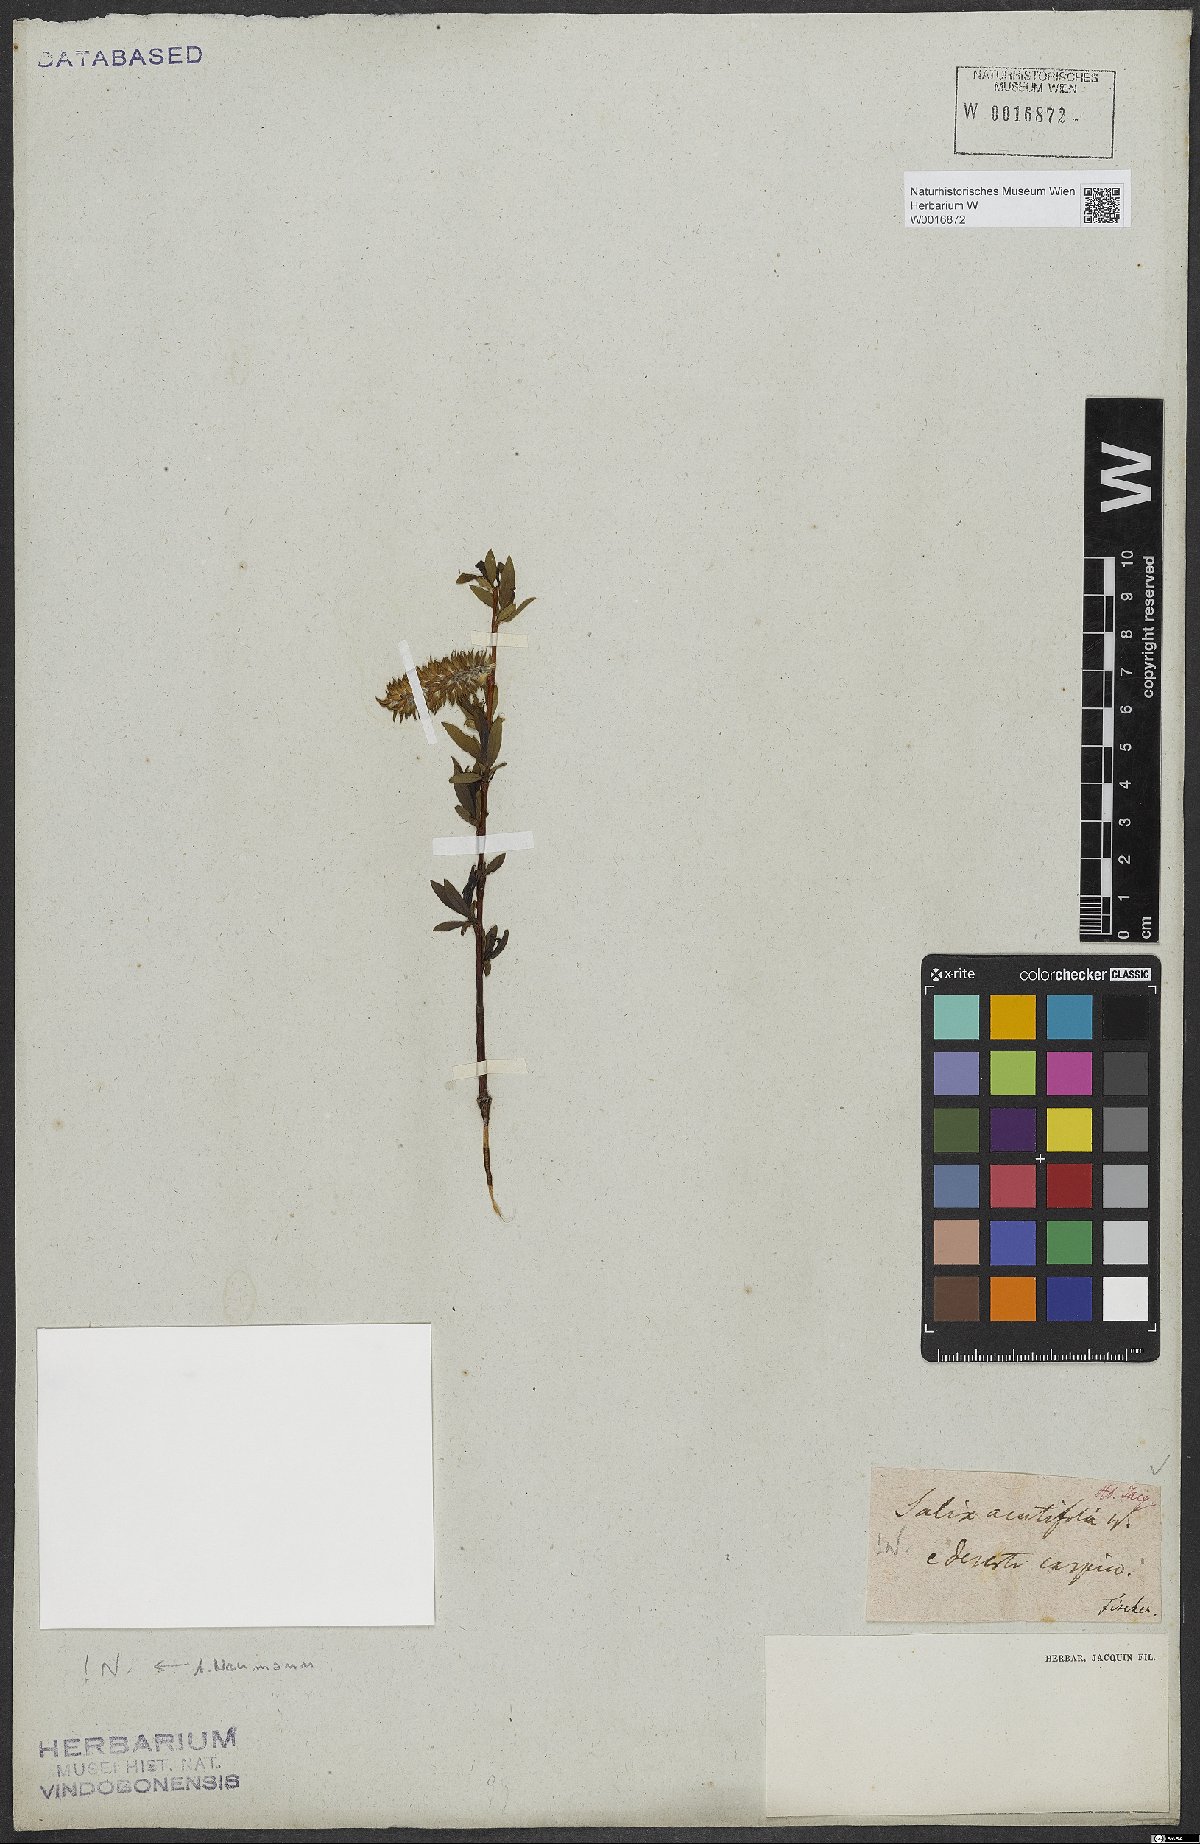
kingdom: Plantae
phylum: Tracheophyta
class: Magnoliopsida
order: Malpighiales
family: Salicaceae
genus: Salix
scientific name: Salix acutifolia
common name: Siberian violet-willow
